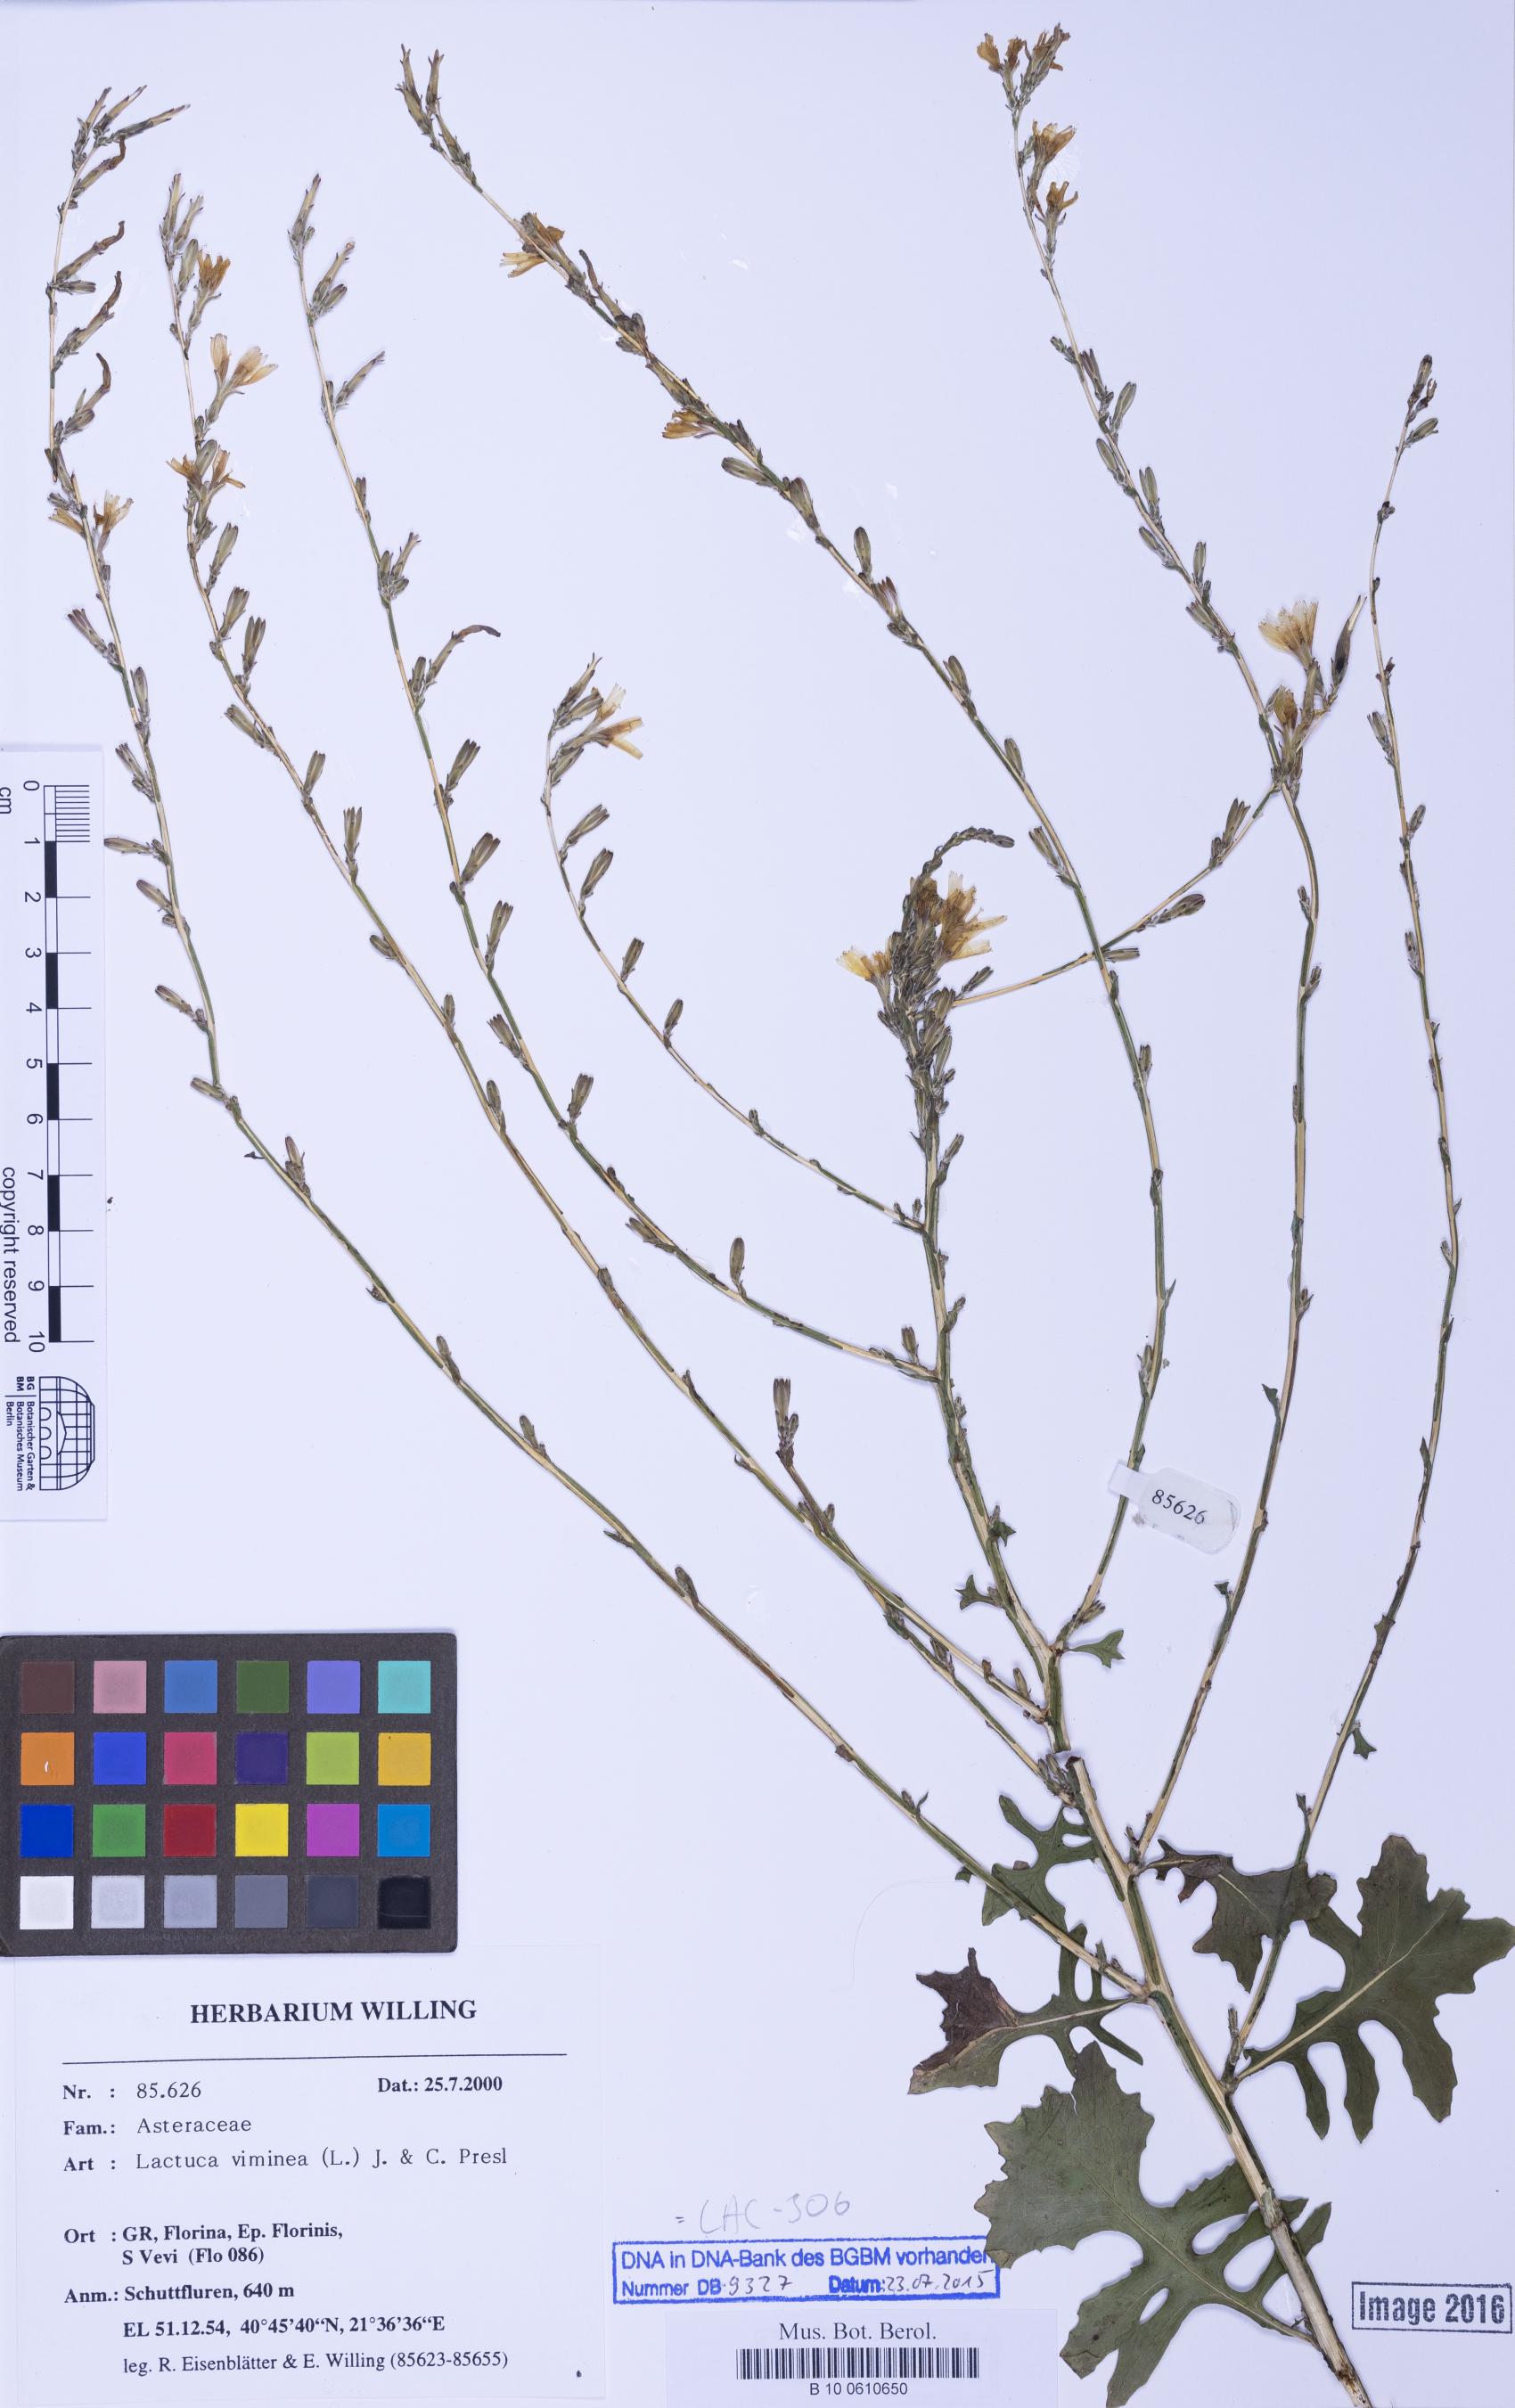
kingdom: Plantae
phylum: Tracheophyta
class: Magnoliopsida
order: Asterales
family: Asteraceae
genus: Lactuca
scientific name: Lactuca viminea
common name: Pliant lettuce
